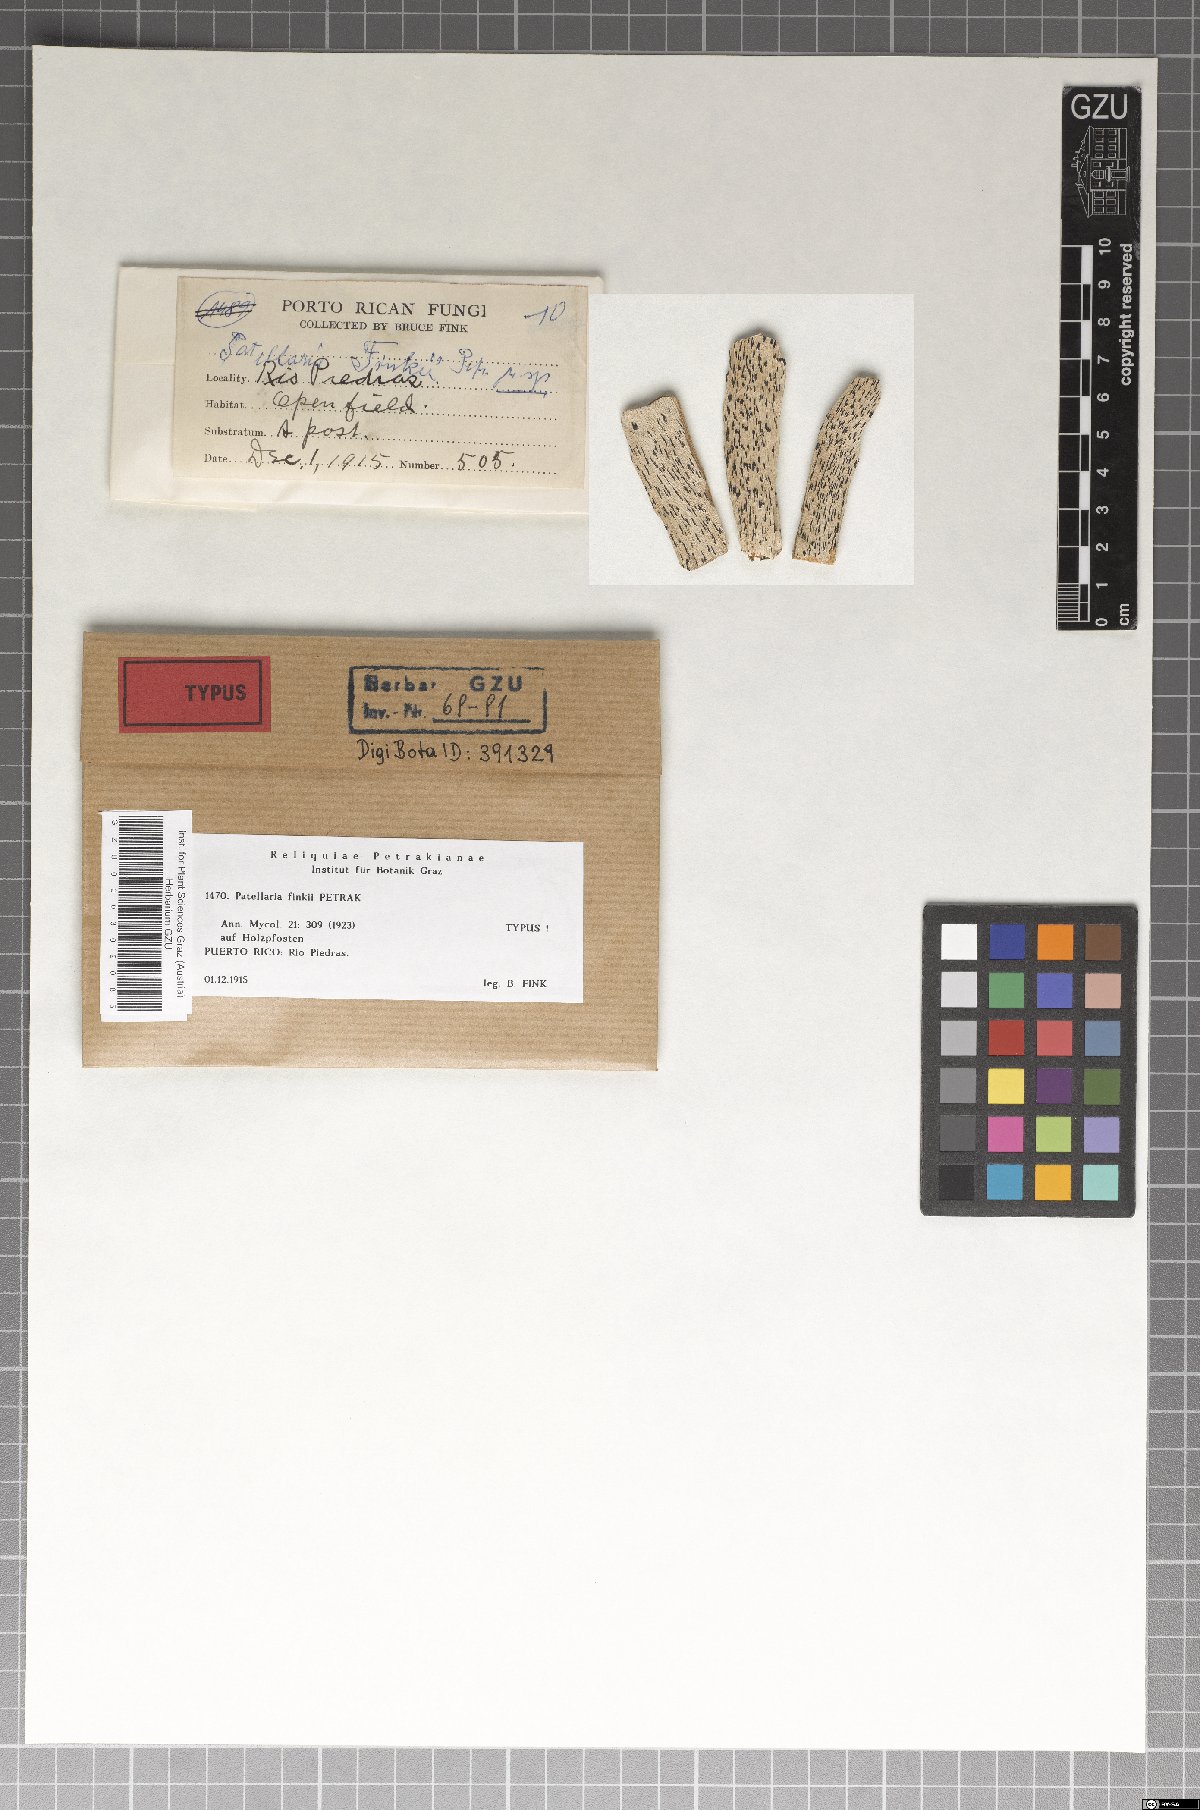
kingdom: Fungi
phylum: Ascomycota
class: Dothideomycetes
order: Patellariales
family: Patellariaceae
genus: Patellaria
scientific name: Patellaria finkii
